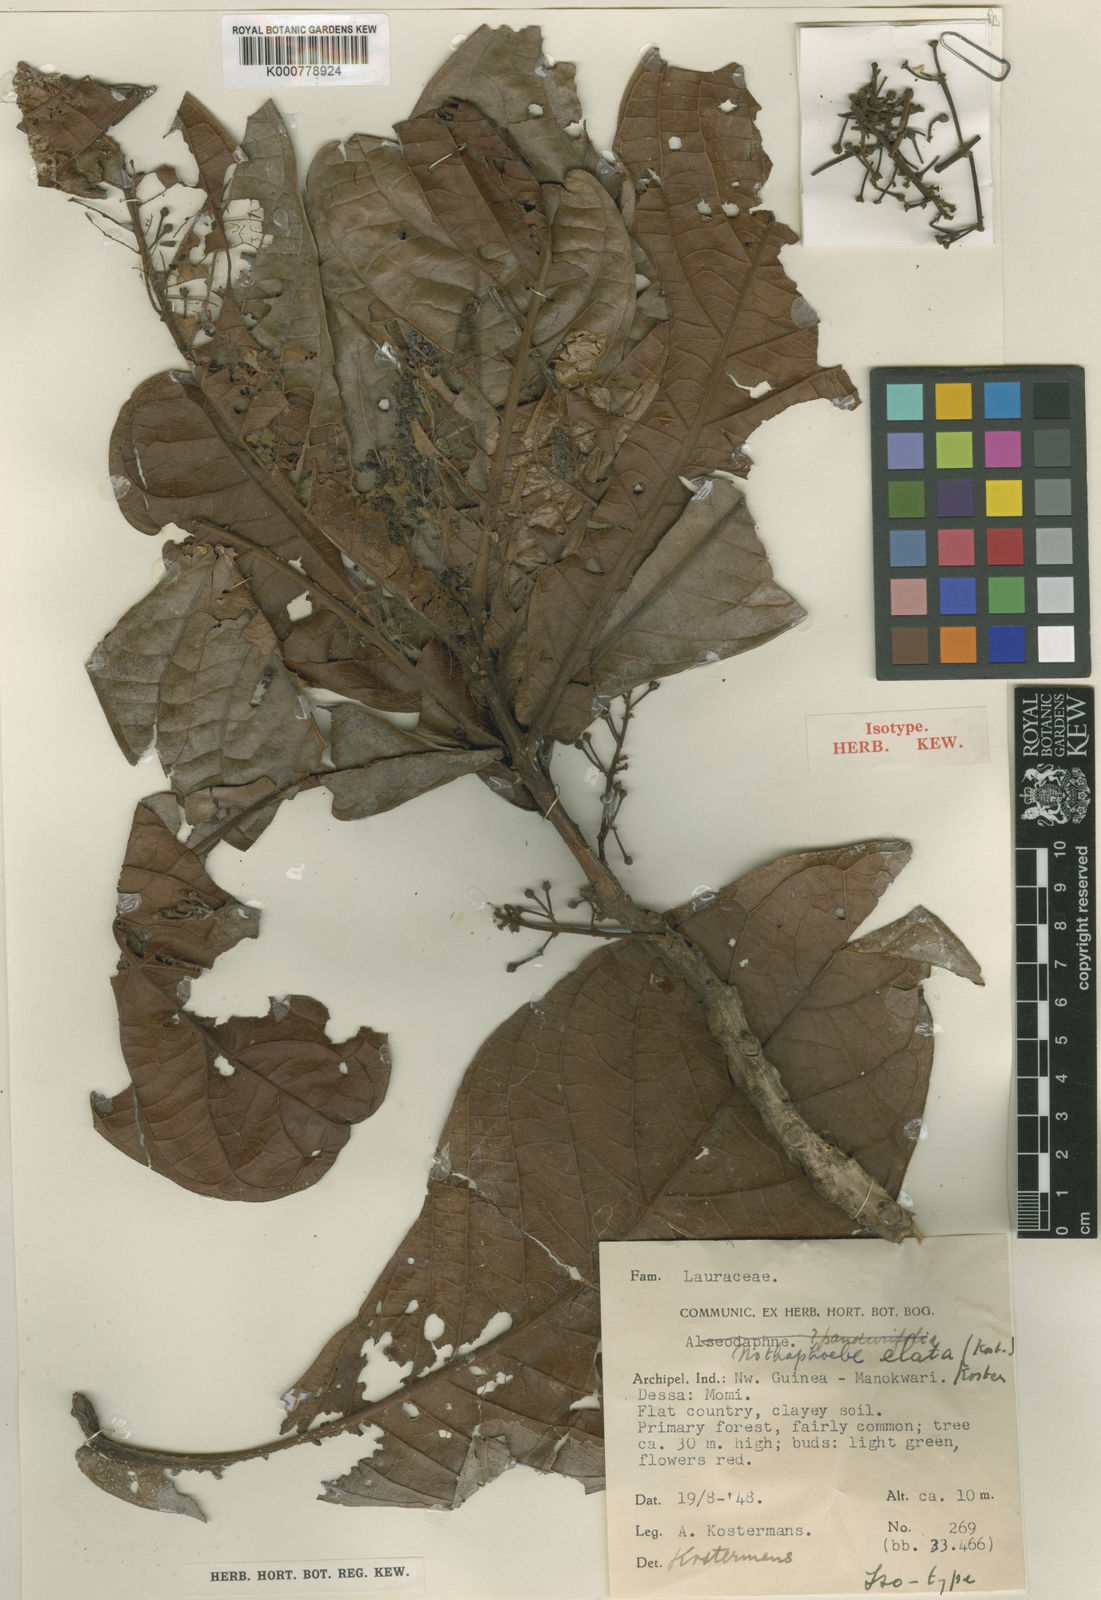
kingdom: Plantae
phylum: Tracheophyta
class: Magnoliopsida
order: Laurales
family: Lauraceae
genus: Nothaphoebe
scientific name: Nothaphoebe elata
